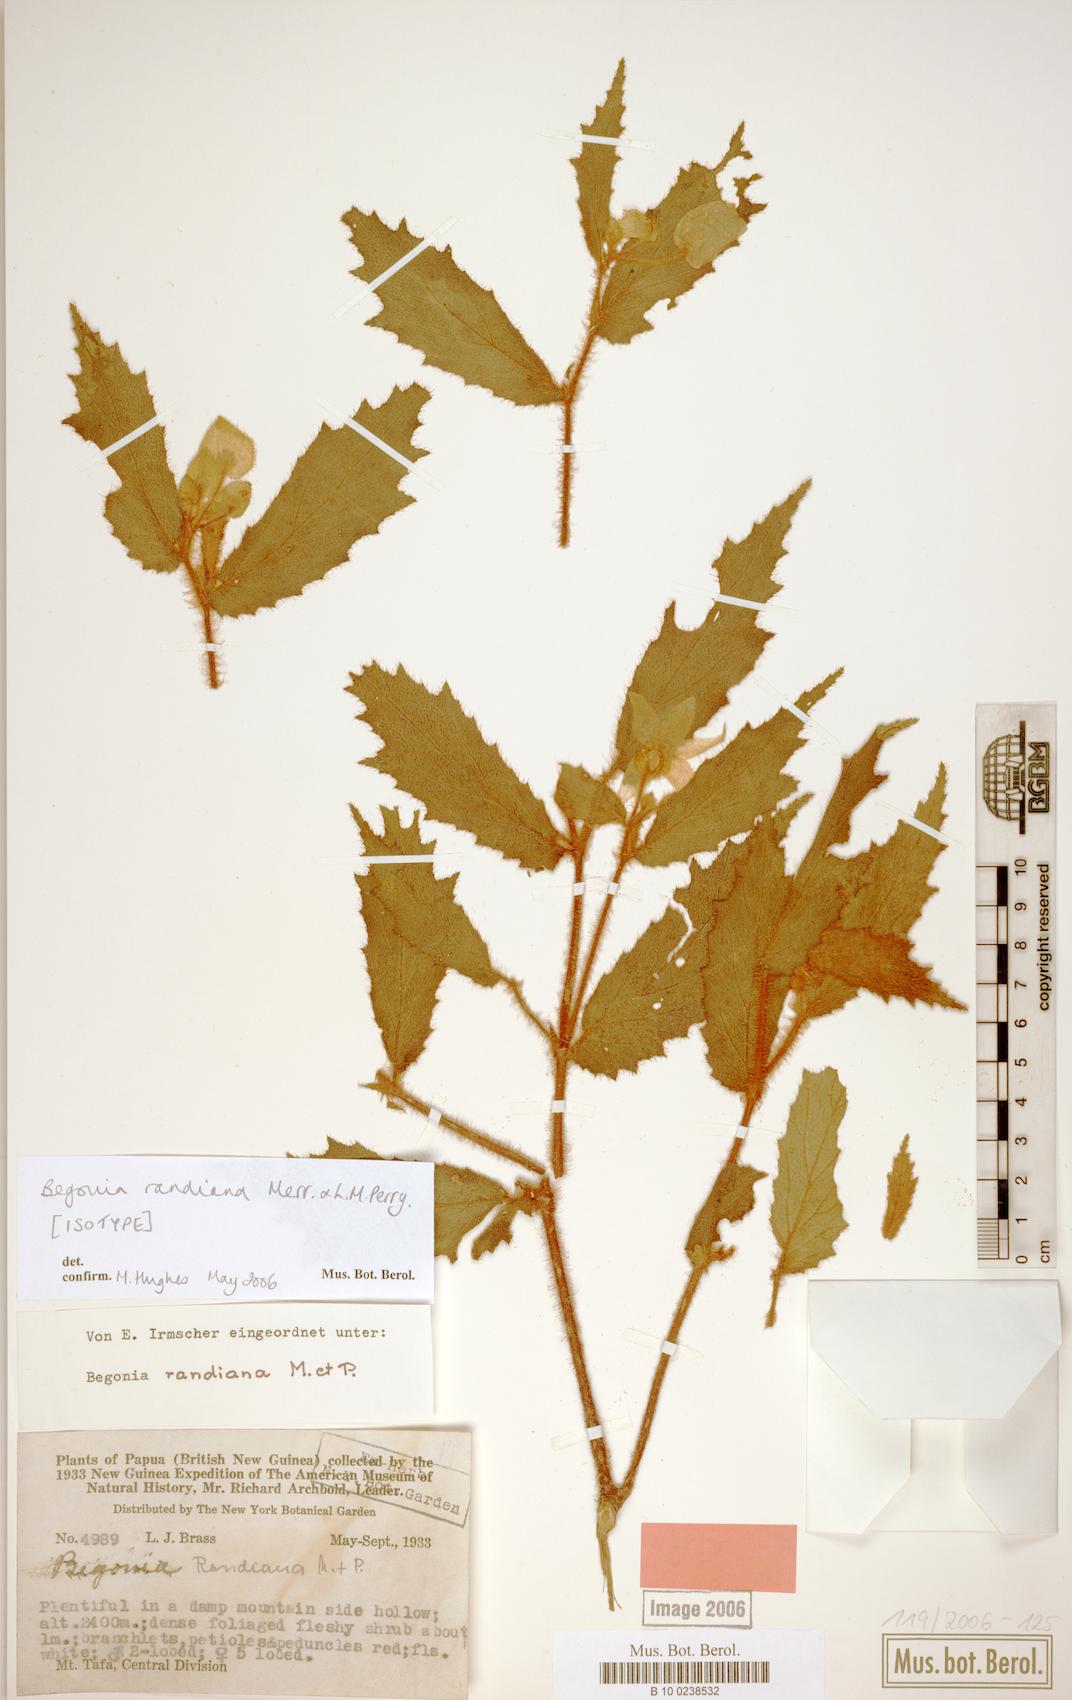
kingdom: Plantae
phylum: Tracheophyta
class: Magnoliopsida
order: Cucurbitales
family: Begoniaceae
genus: Begonia
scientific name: Begonia randiana
